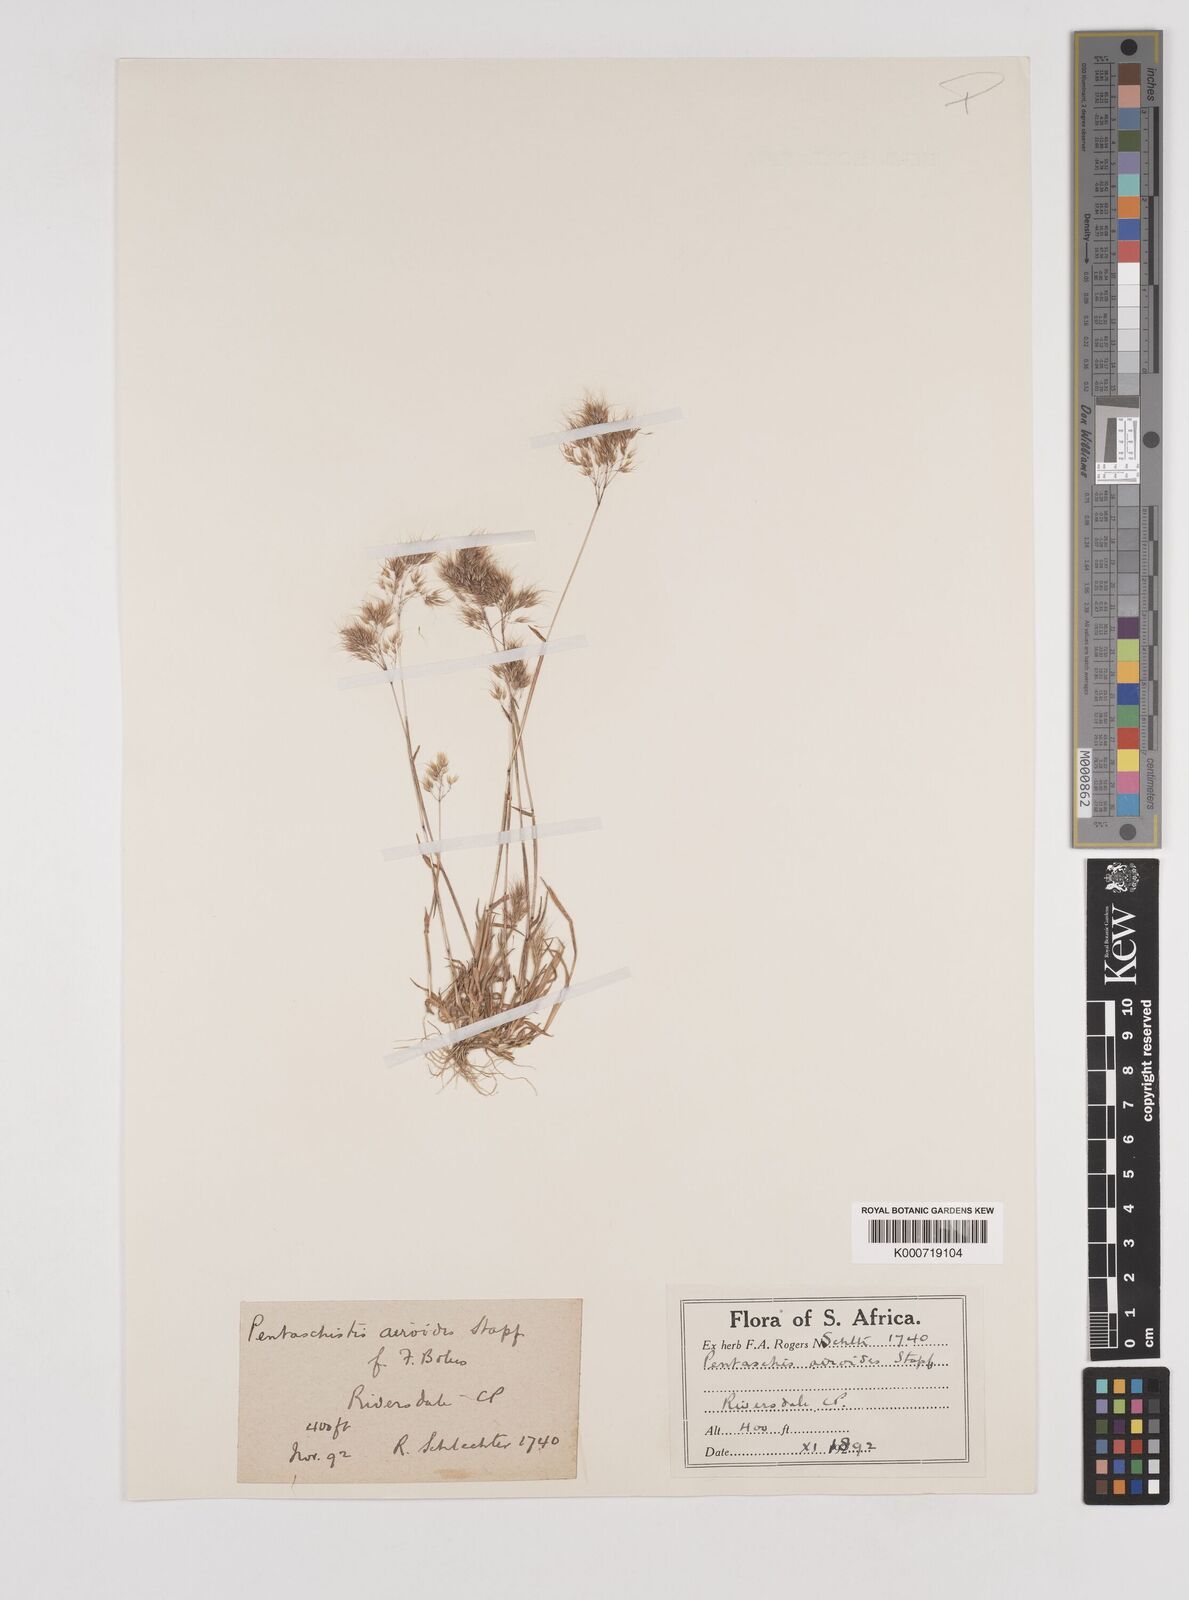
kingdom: Plantae
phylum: Tracheophyta
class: Liliopsida
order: Poales
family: Poaceae
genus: Pentameris
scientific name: Pentameris airoides
